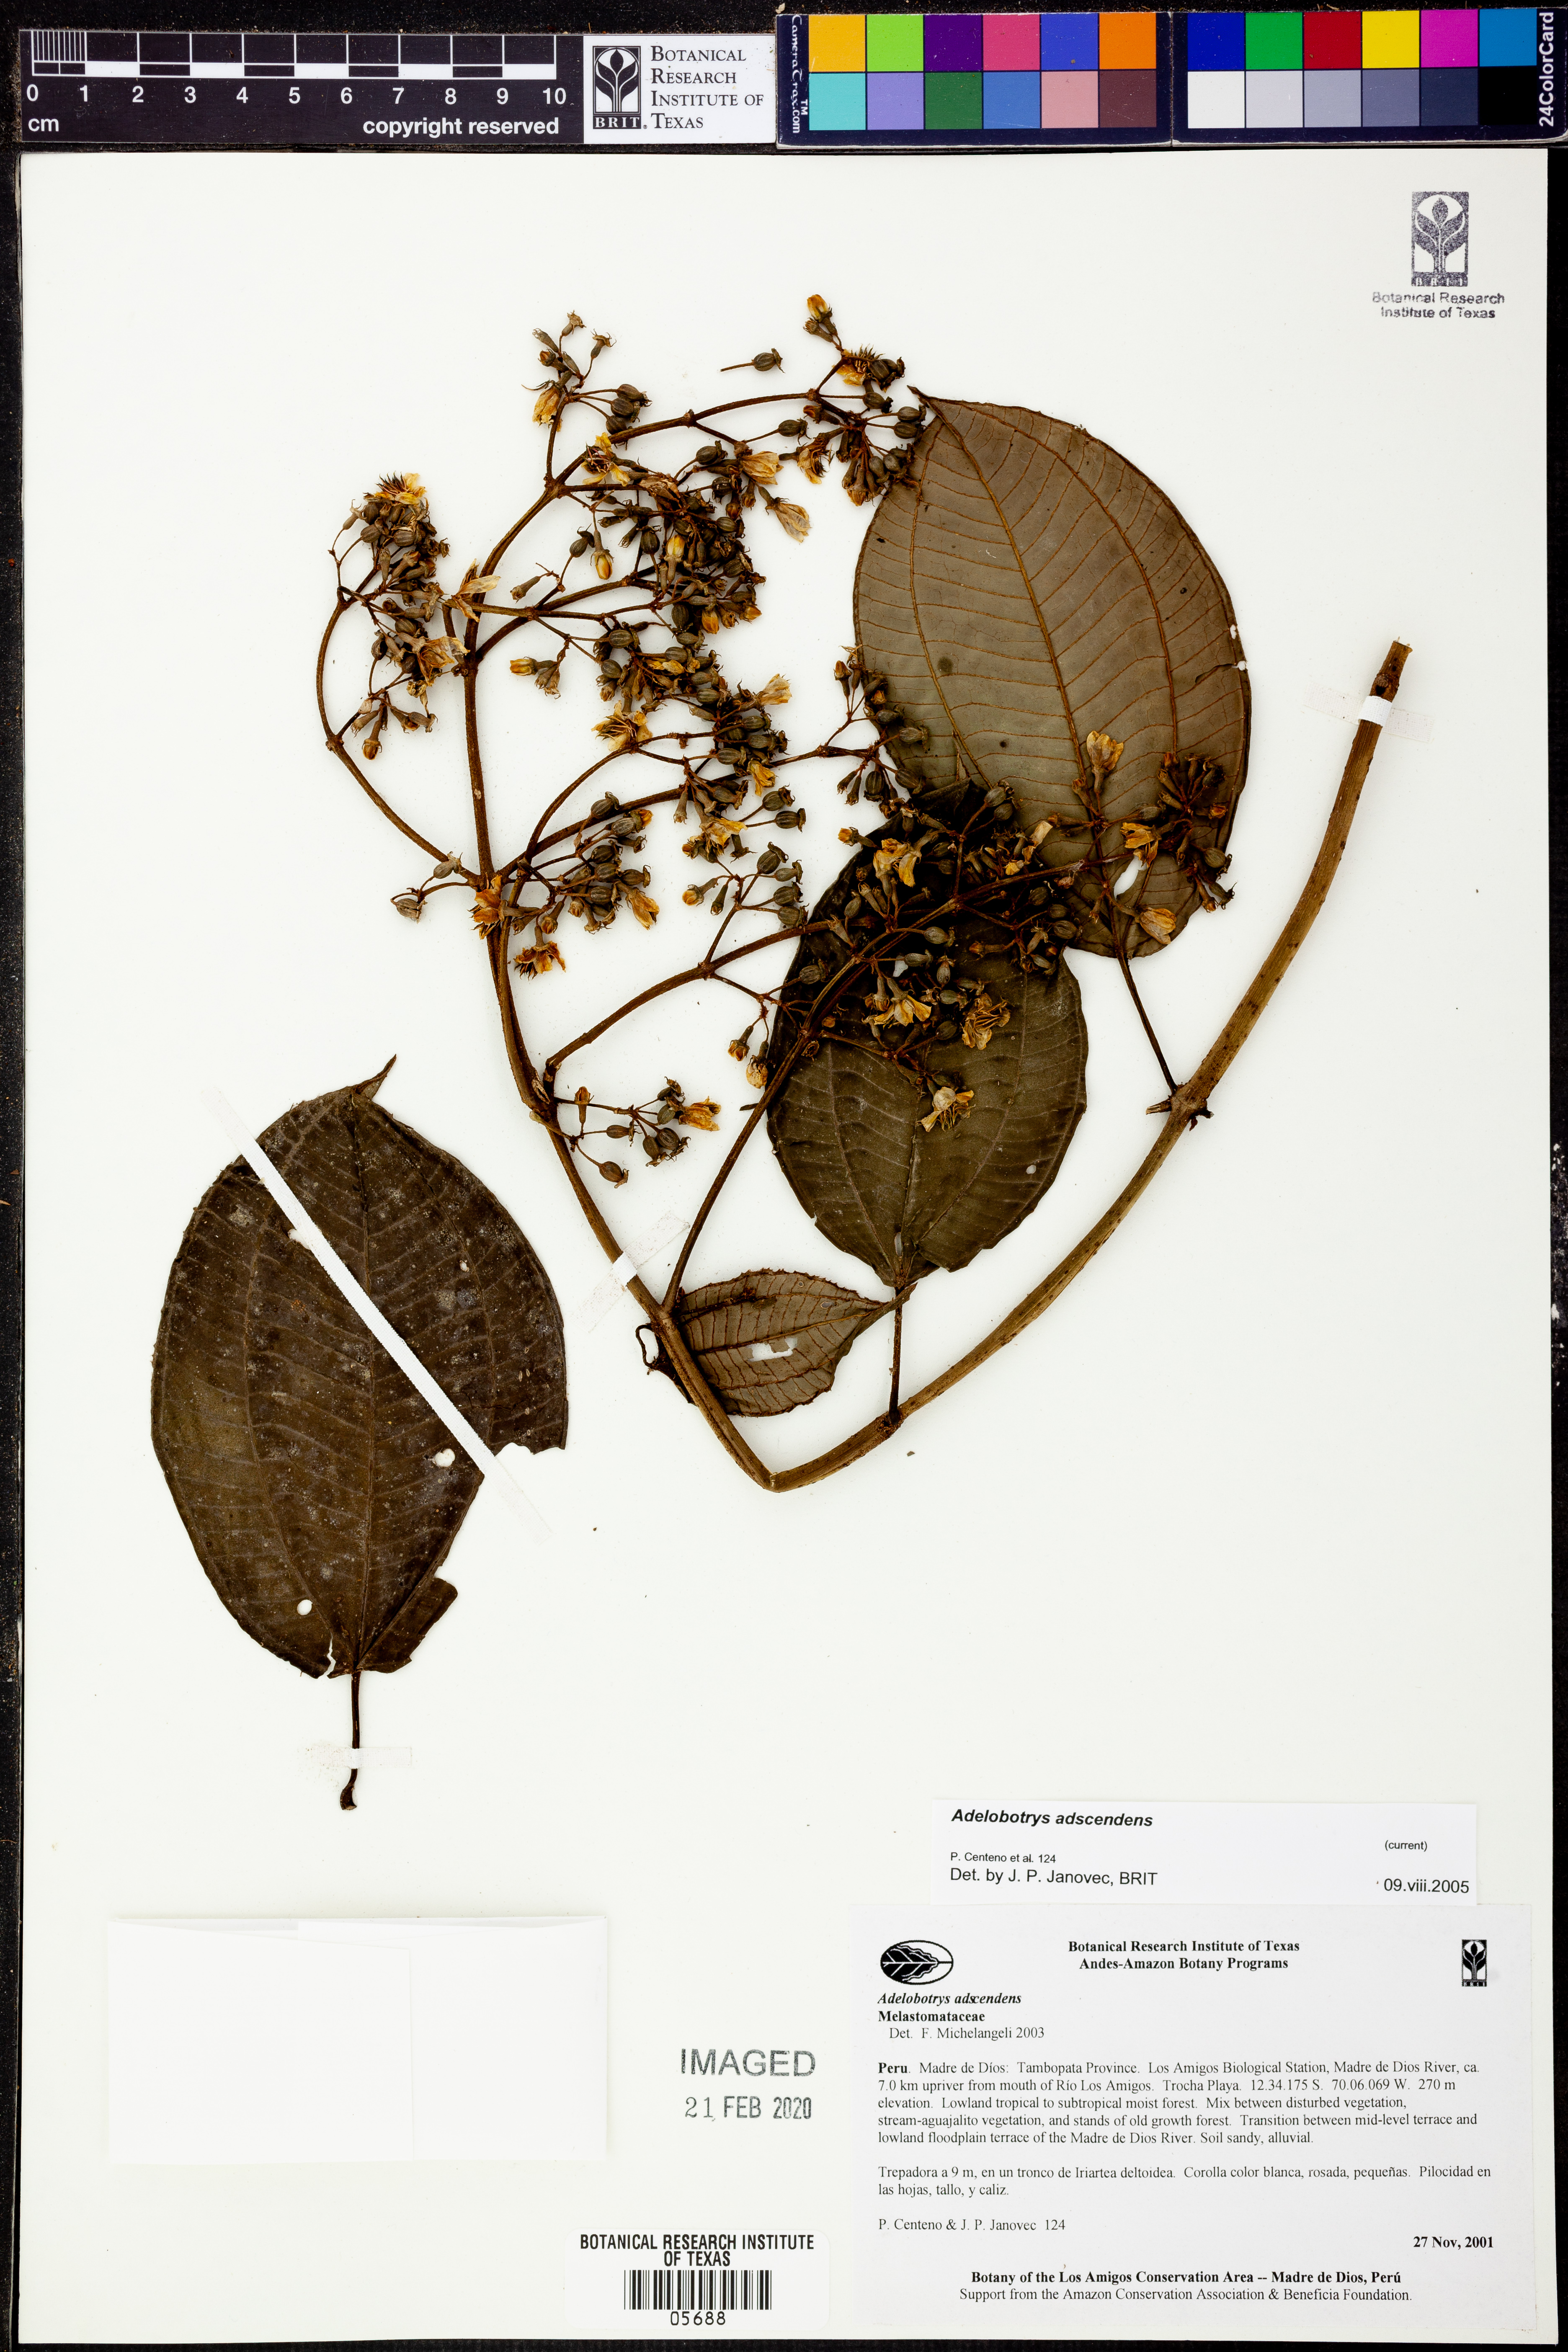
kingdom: Plantae
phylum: Tracheophyta
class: Magnoliopsida
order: Myrtales
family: Melastomataceae
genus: Adelobotrys
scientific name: Adelobotrys adscendens
